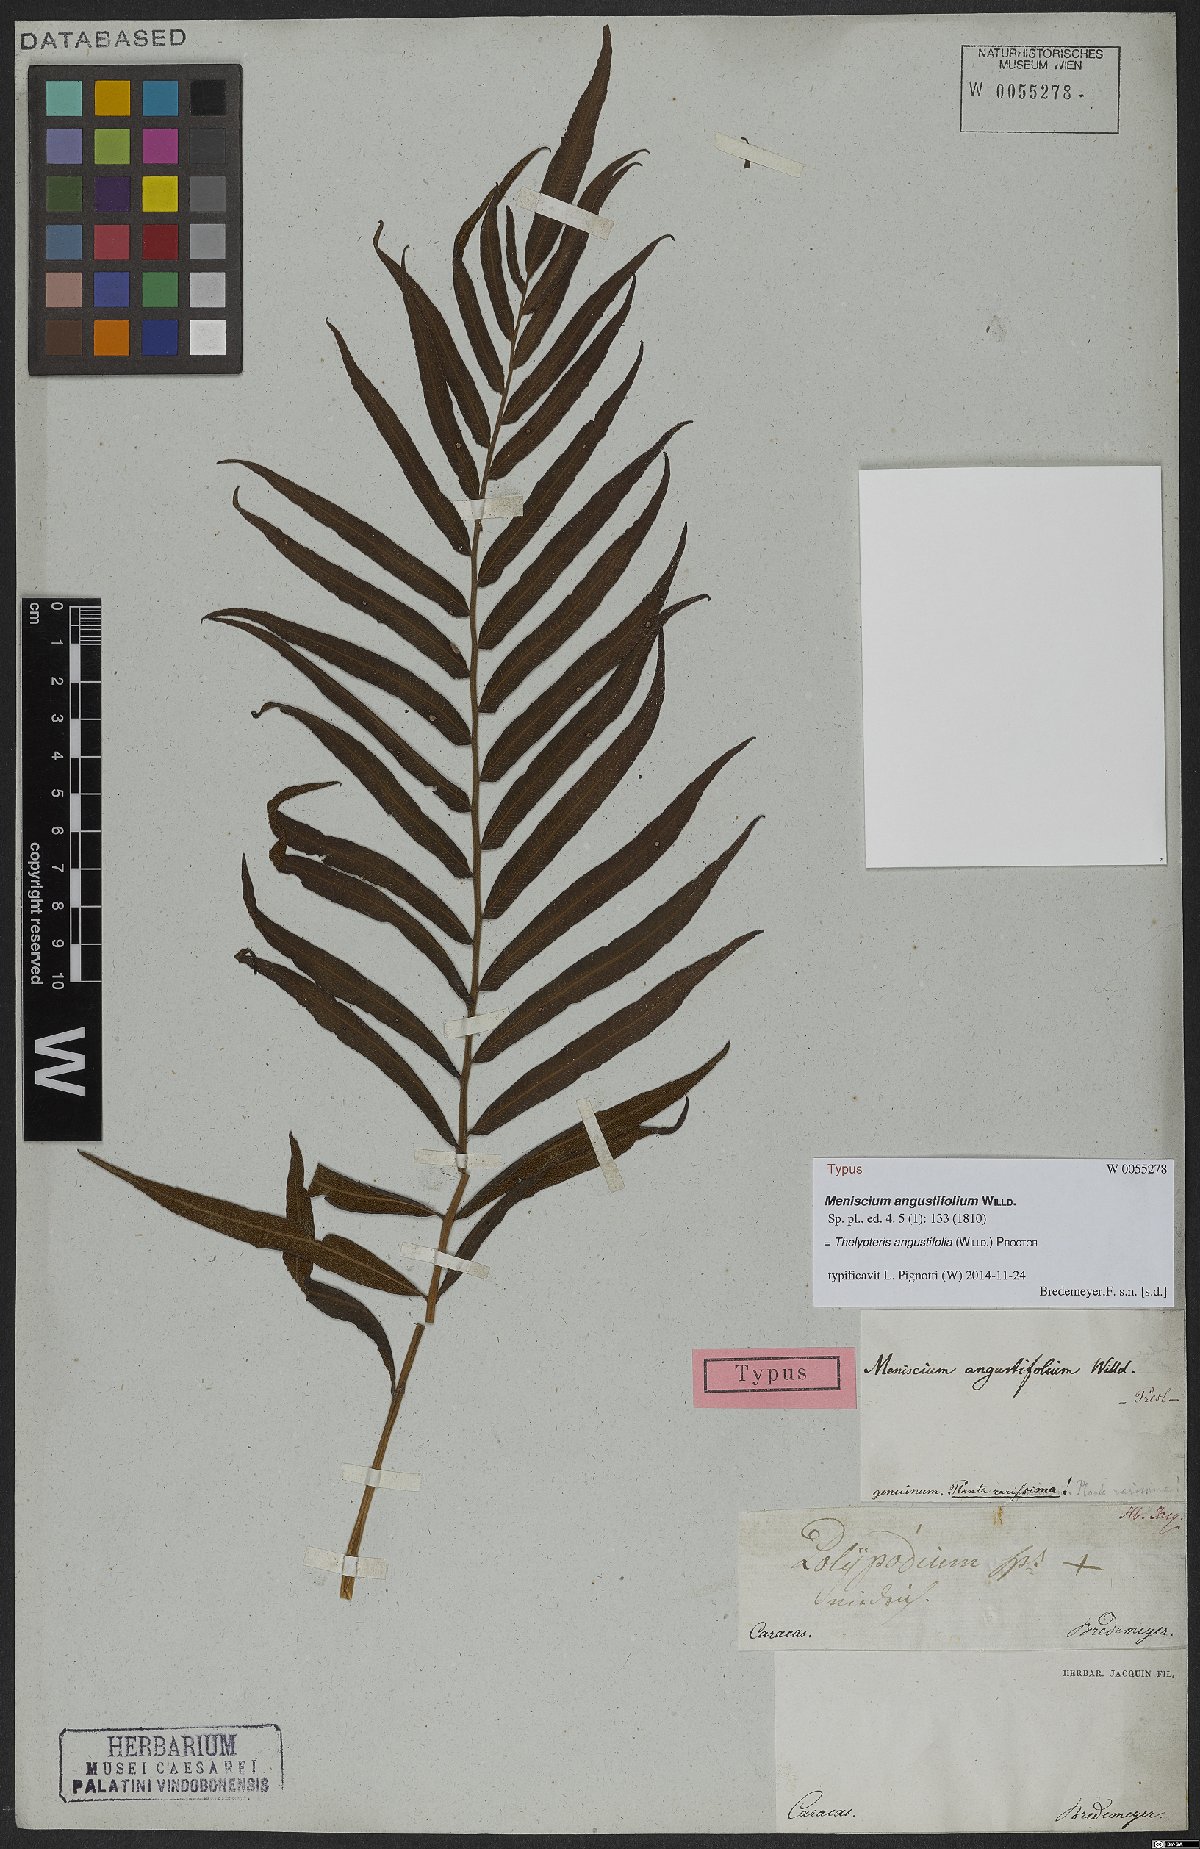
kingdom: Plantae
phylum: Tracheophyta
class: Polypodiopsida
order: Polypodiales
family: Thelypteridaceae
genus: Meniscium
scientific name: Meniscium angustifolium
